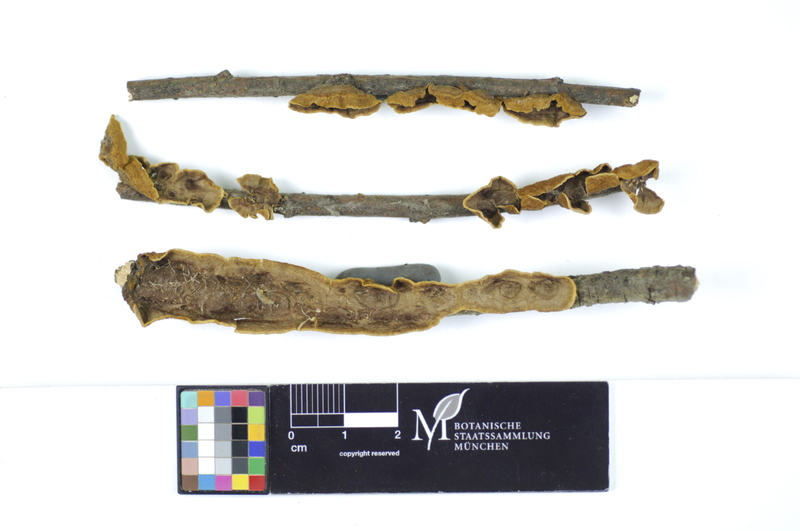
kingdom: Fungi
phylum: Basidiomycota
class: Agaricomycetes
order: Hymenochaetales
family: Hymenochaetaceae
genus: Hydnoporia
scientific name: Hydnoporia tabacina
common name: Willow glue
